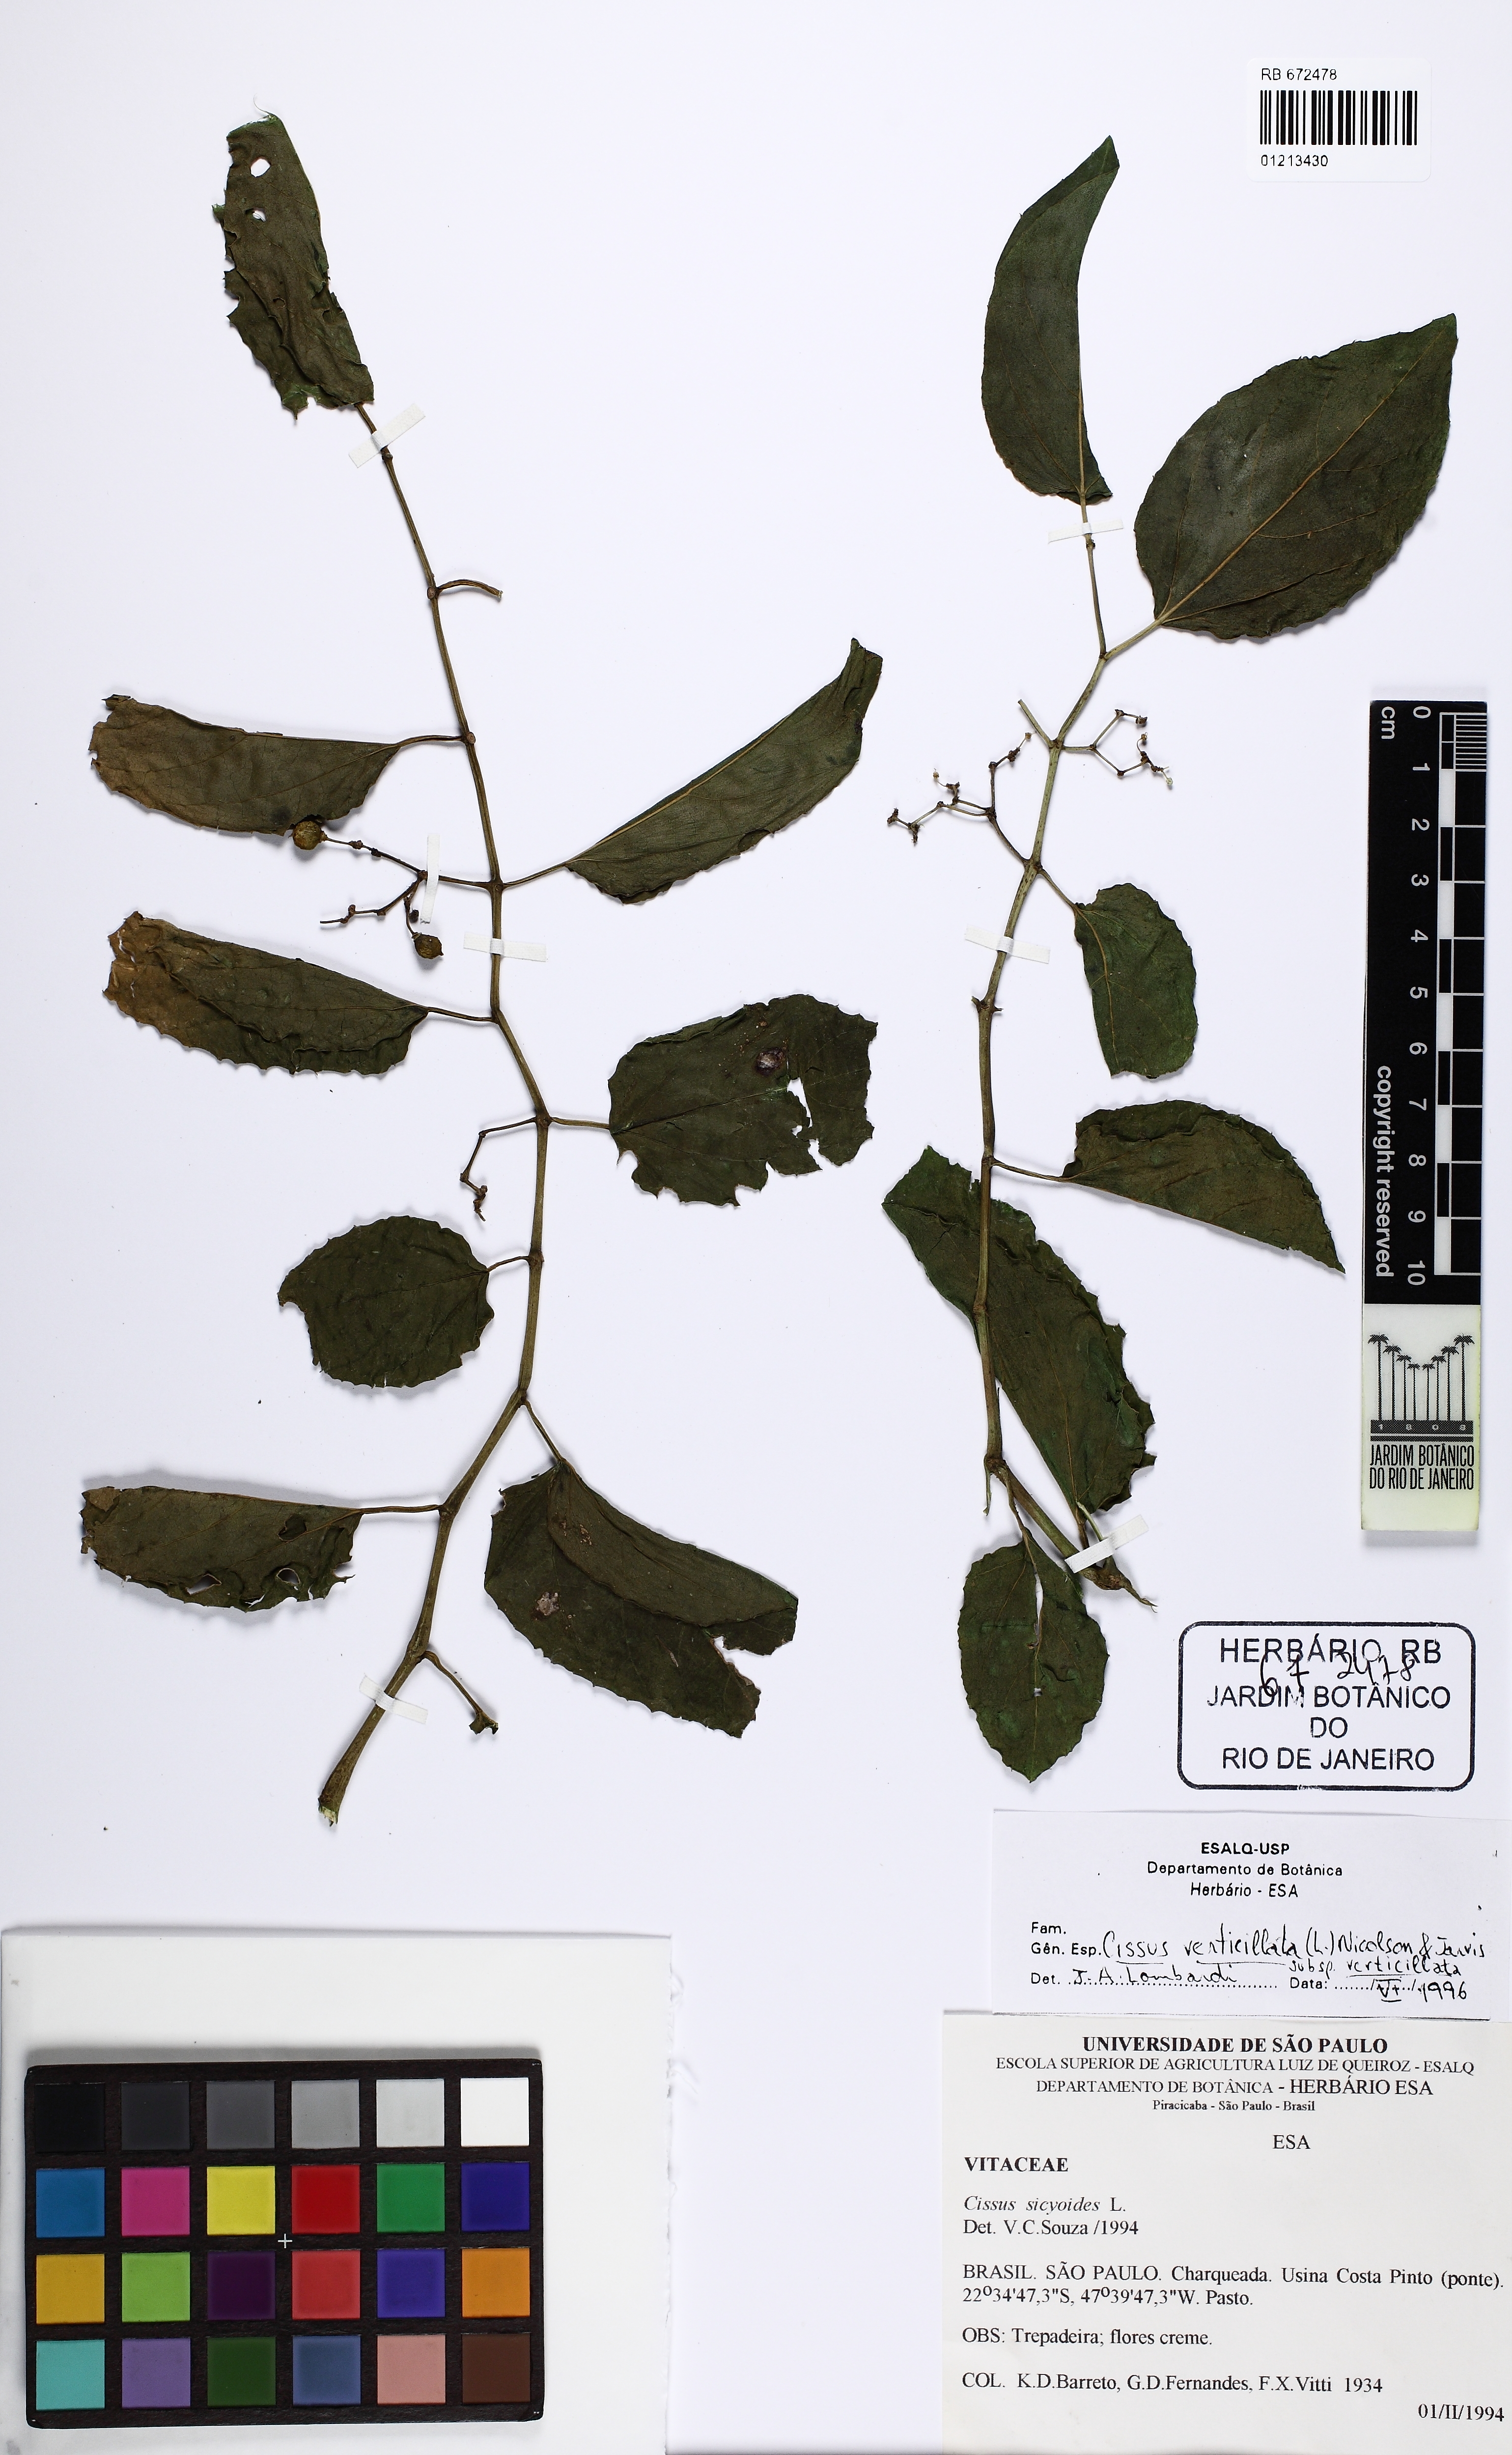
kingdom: Plantae
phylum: Tracheophyta
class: Magnoliopsida
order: Vitales
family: Vitaceae
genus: Cissus
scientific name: Cissus verticillata
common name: Princess vine
